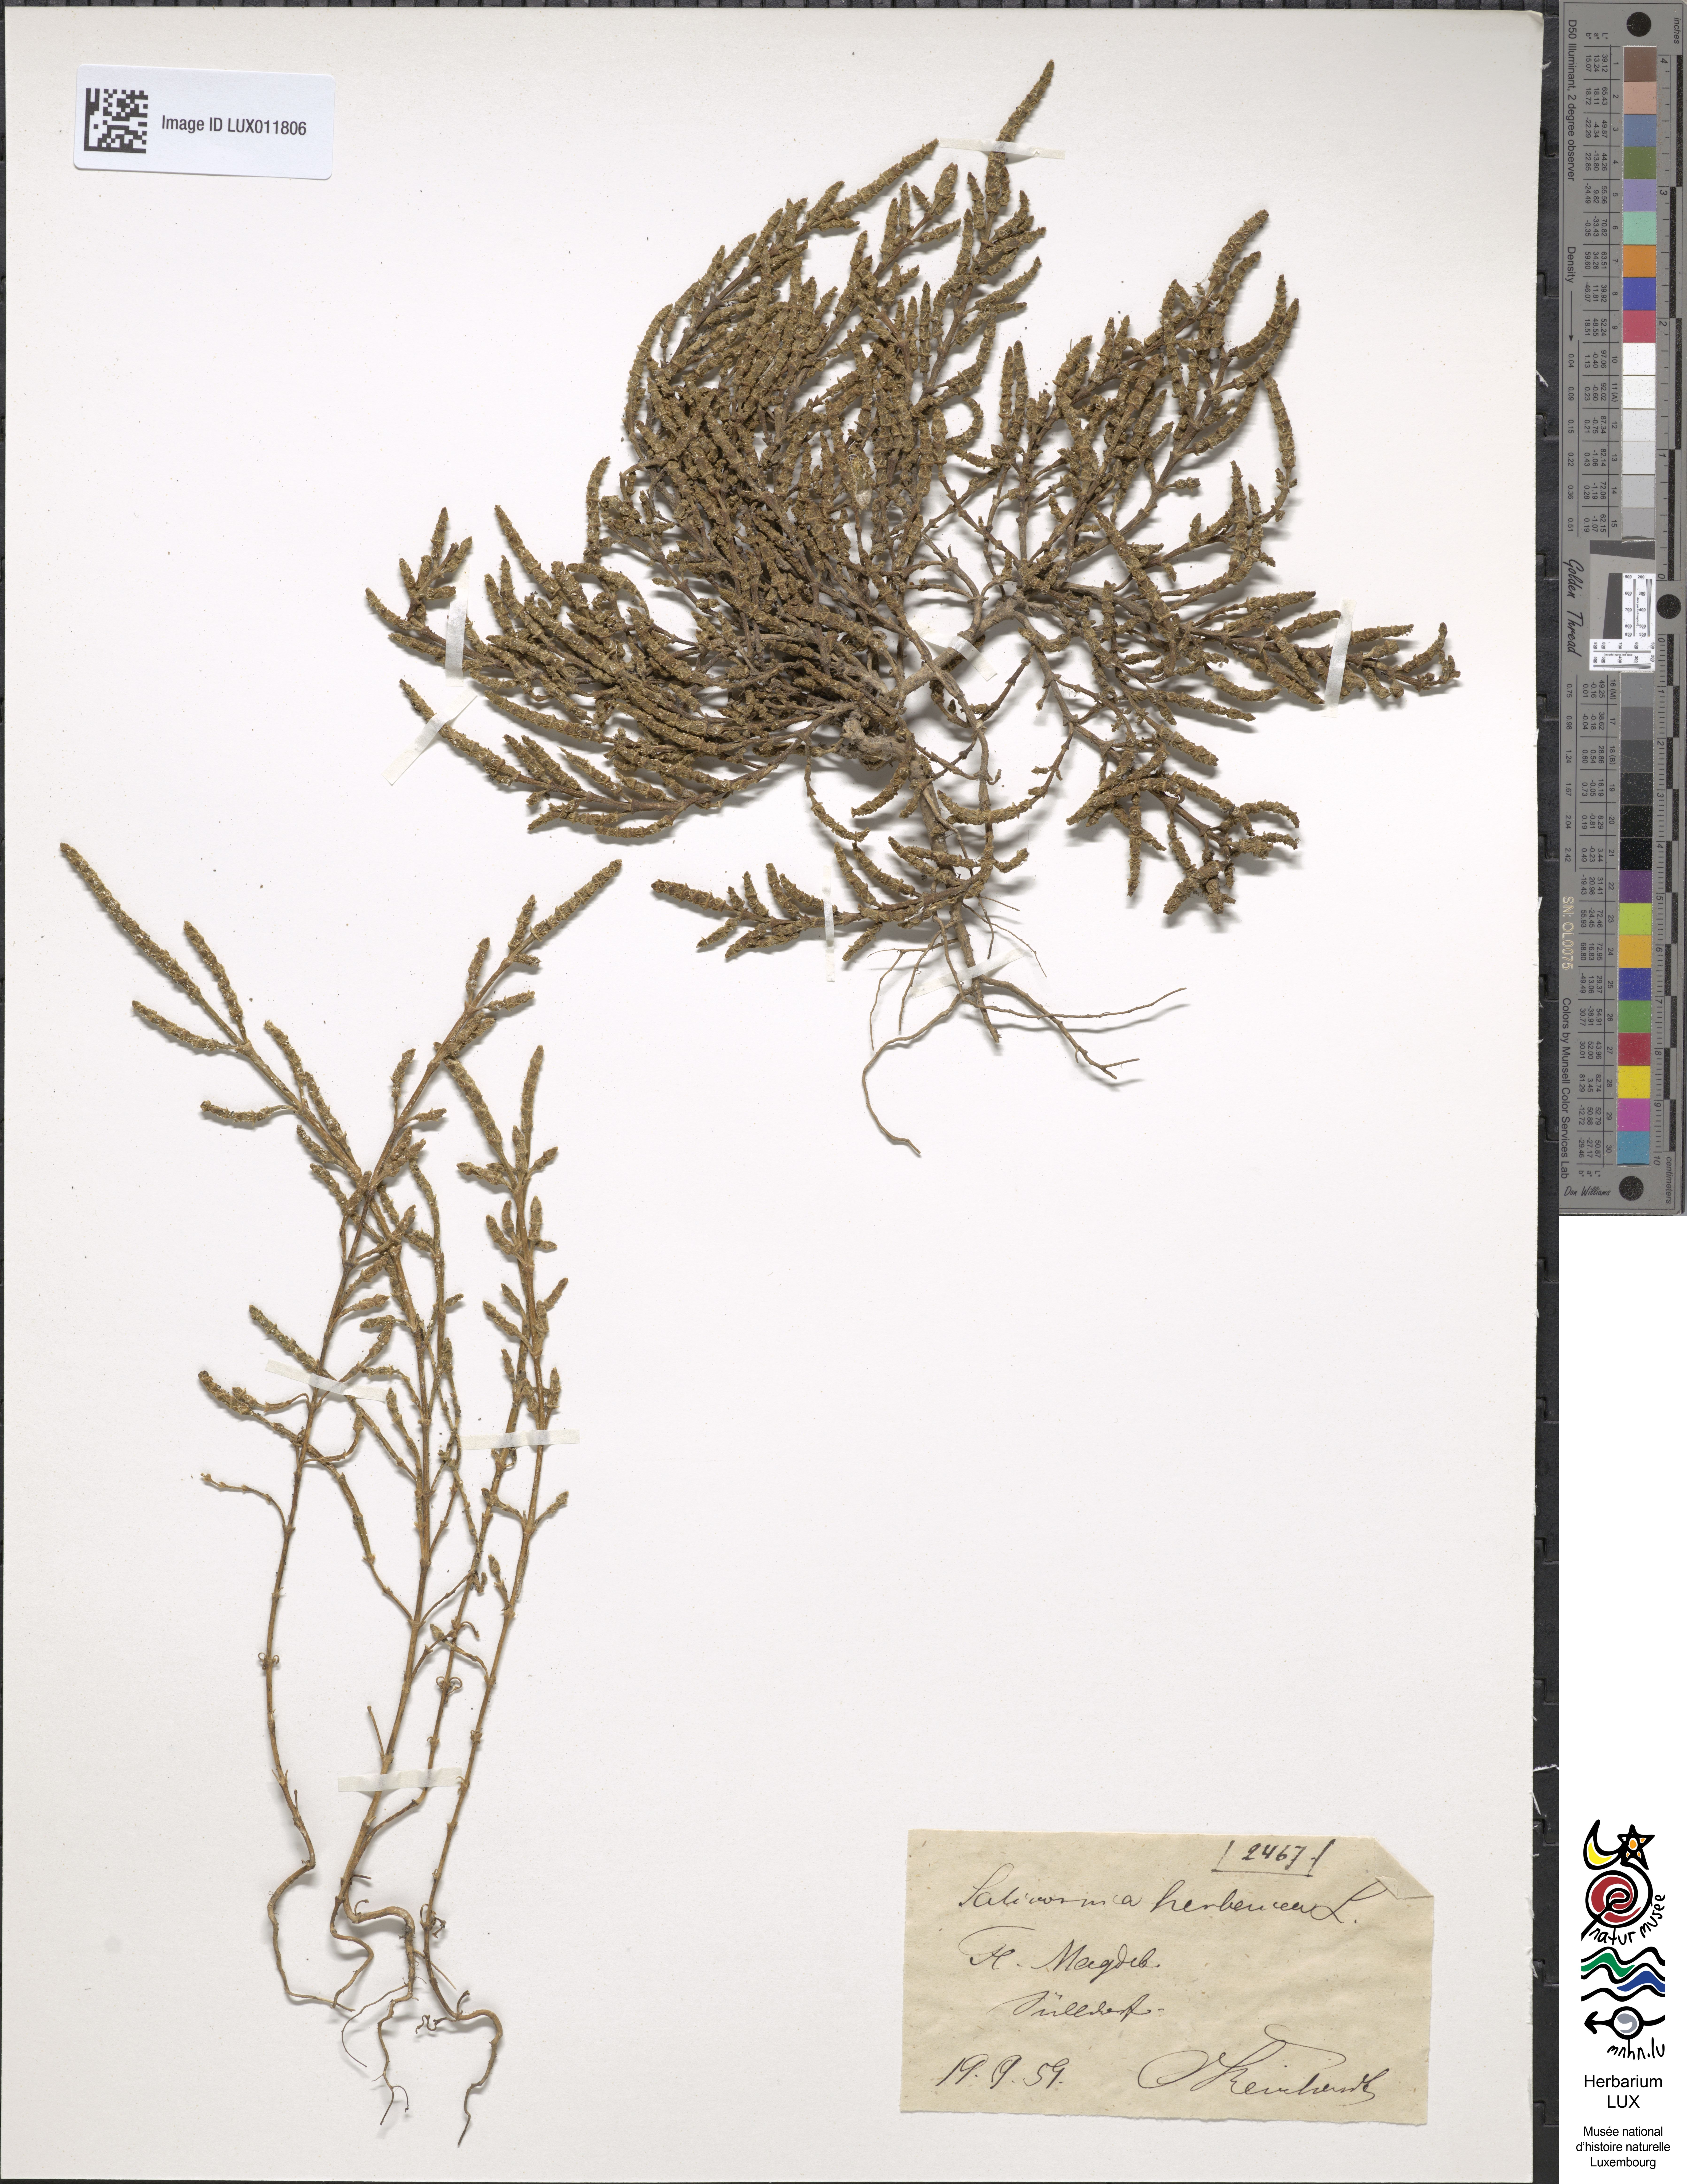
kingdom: Plantae
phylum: Tracheophyta
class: Magnoliopsida
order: Caryophyllales
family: Amaranthaceae
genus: Salicornia
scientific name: Salicornia europaea
